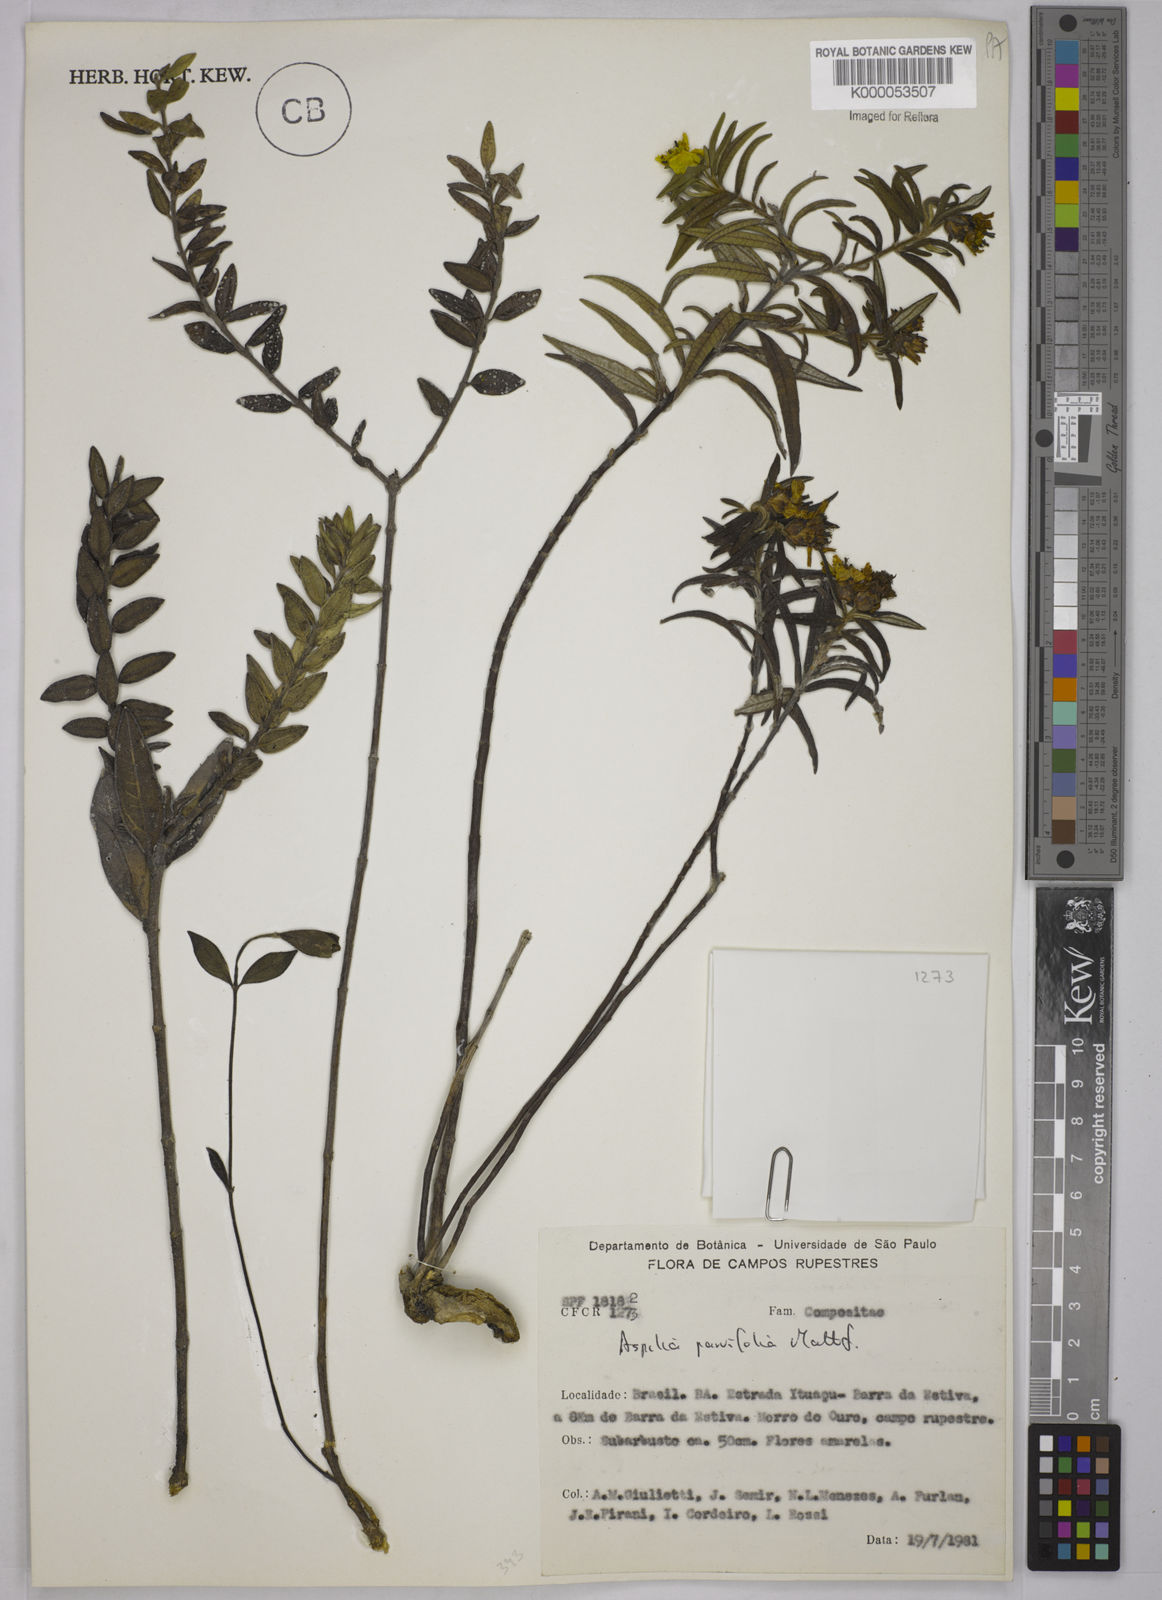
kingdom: Plantae
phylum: Tracheophyta
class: Magnoliopsida
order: Asterales
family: Asteraceae
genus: Aspilia
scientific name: Aspilia foliosa
